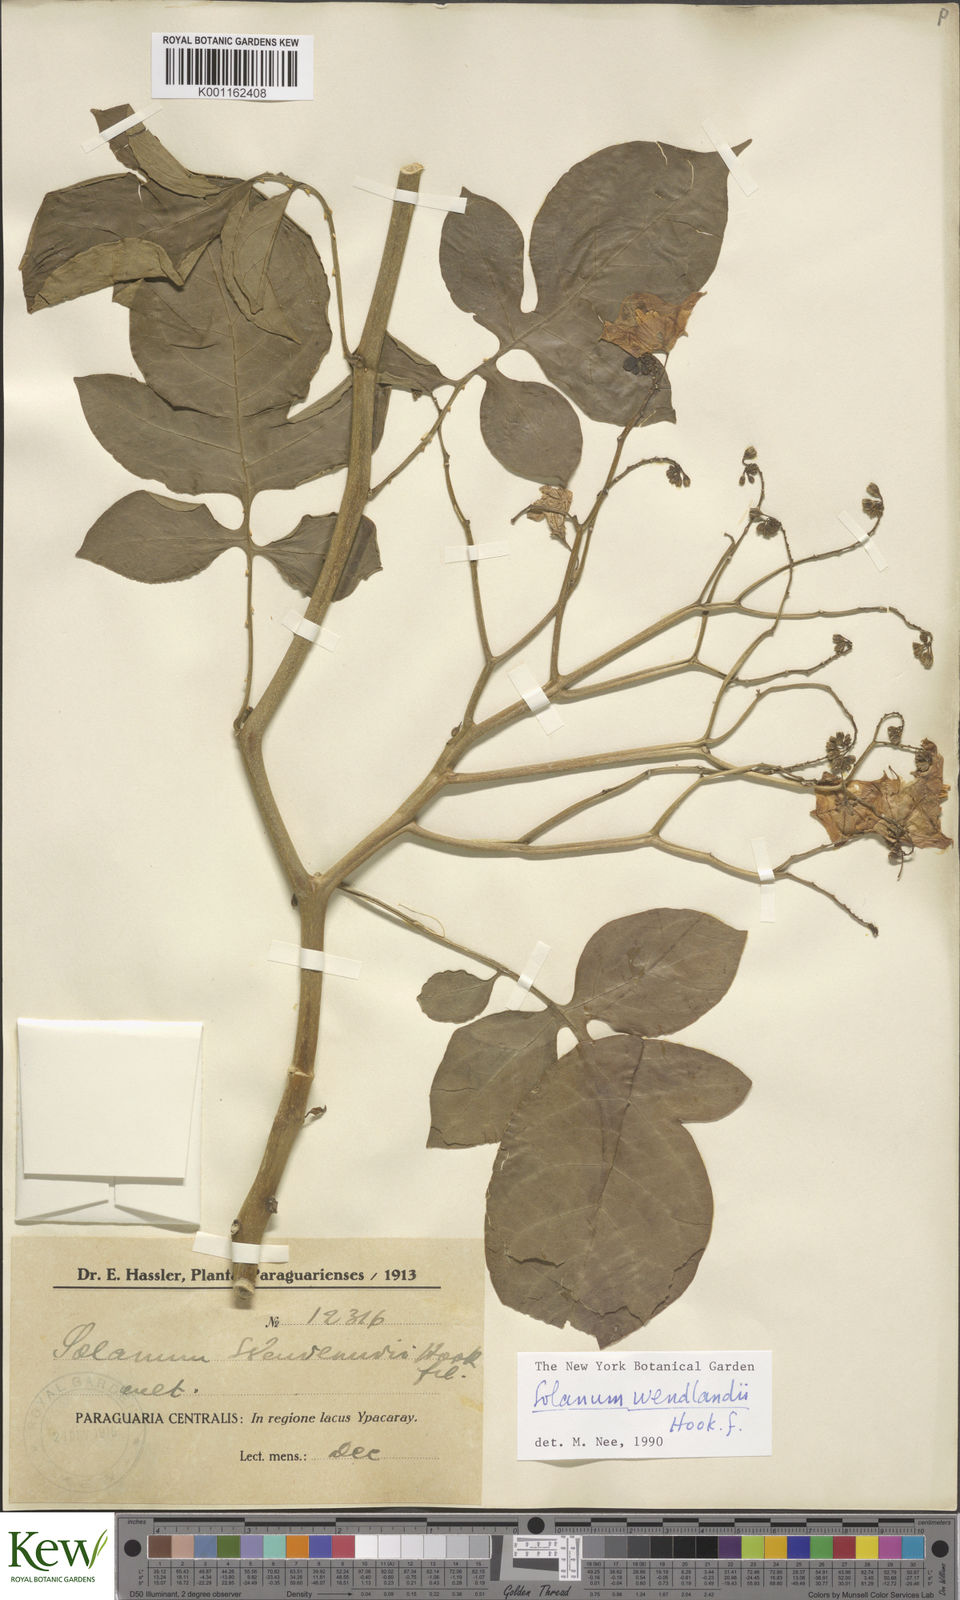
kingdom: Plantae
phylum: Tracheophyta
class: Magnoliopsida
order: Solanales
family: Solanaceae
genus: Solanum
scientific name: Solanum wendlandii
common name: Costa rican nightshade
